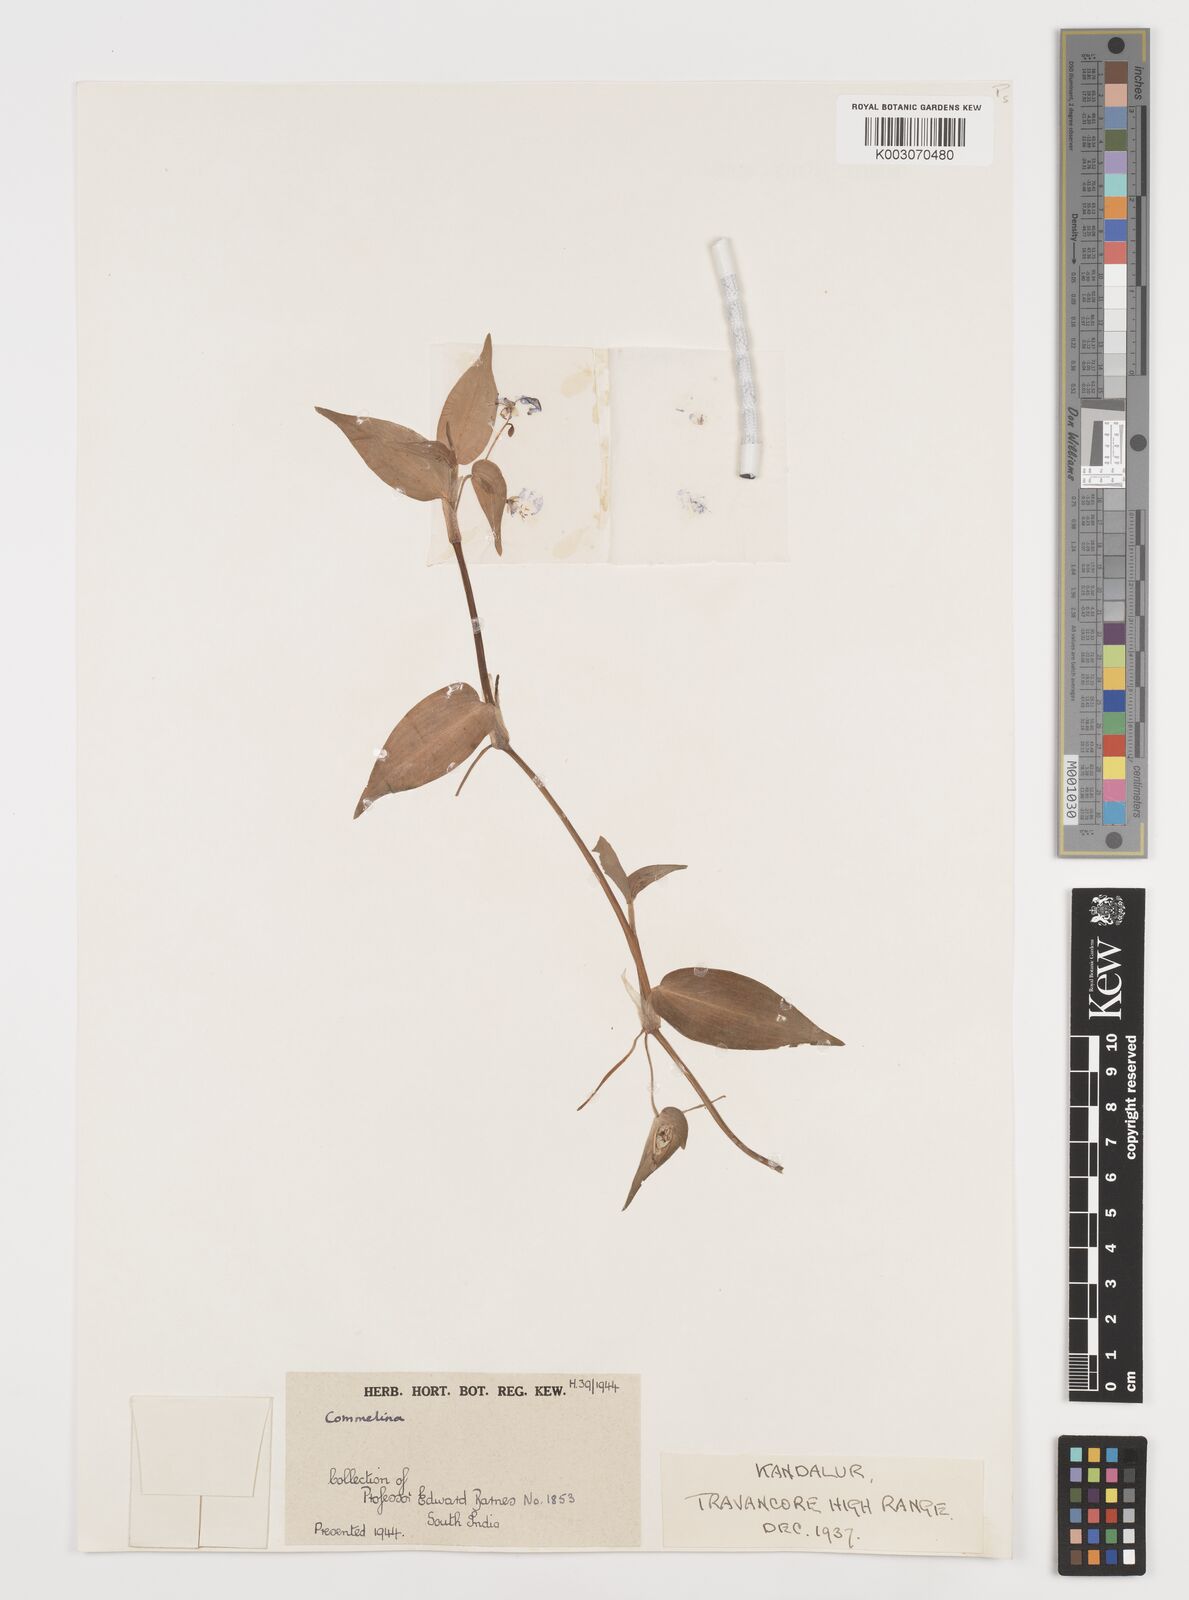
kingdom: Plantae
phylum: Tracheophyta
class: Liliopsida
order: Commelinales
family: Commelinaceae
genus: Commelina
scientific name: Commelina
